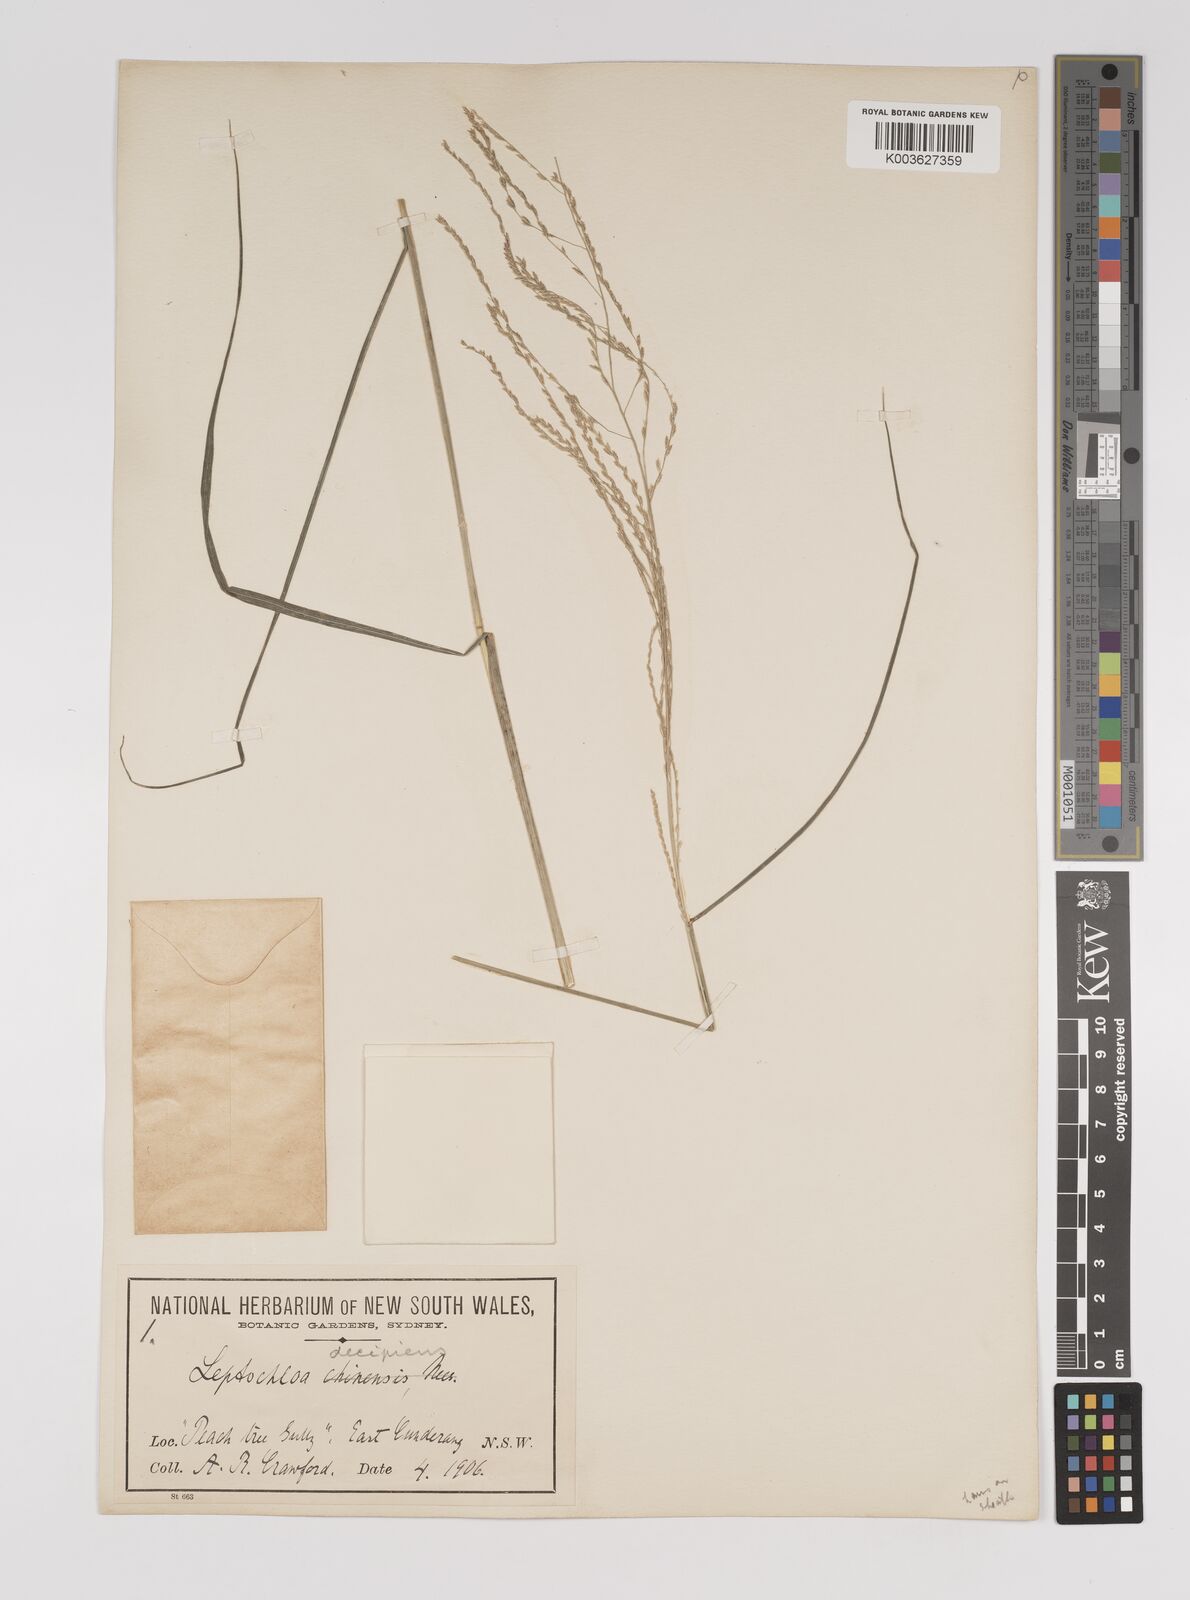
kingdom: Plantae
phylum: Tracheophyta
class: Liliopsida
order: Poales
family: Poaceae
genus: Leptochloa
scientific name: Leptochloa decipiens
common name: Australian sprangletop
